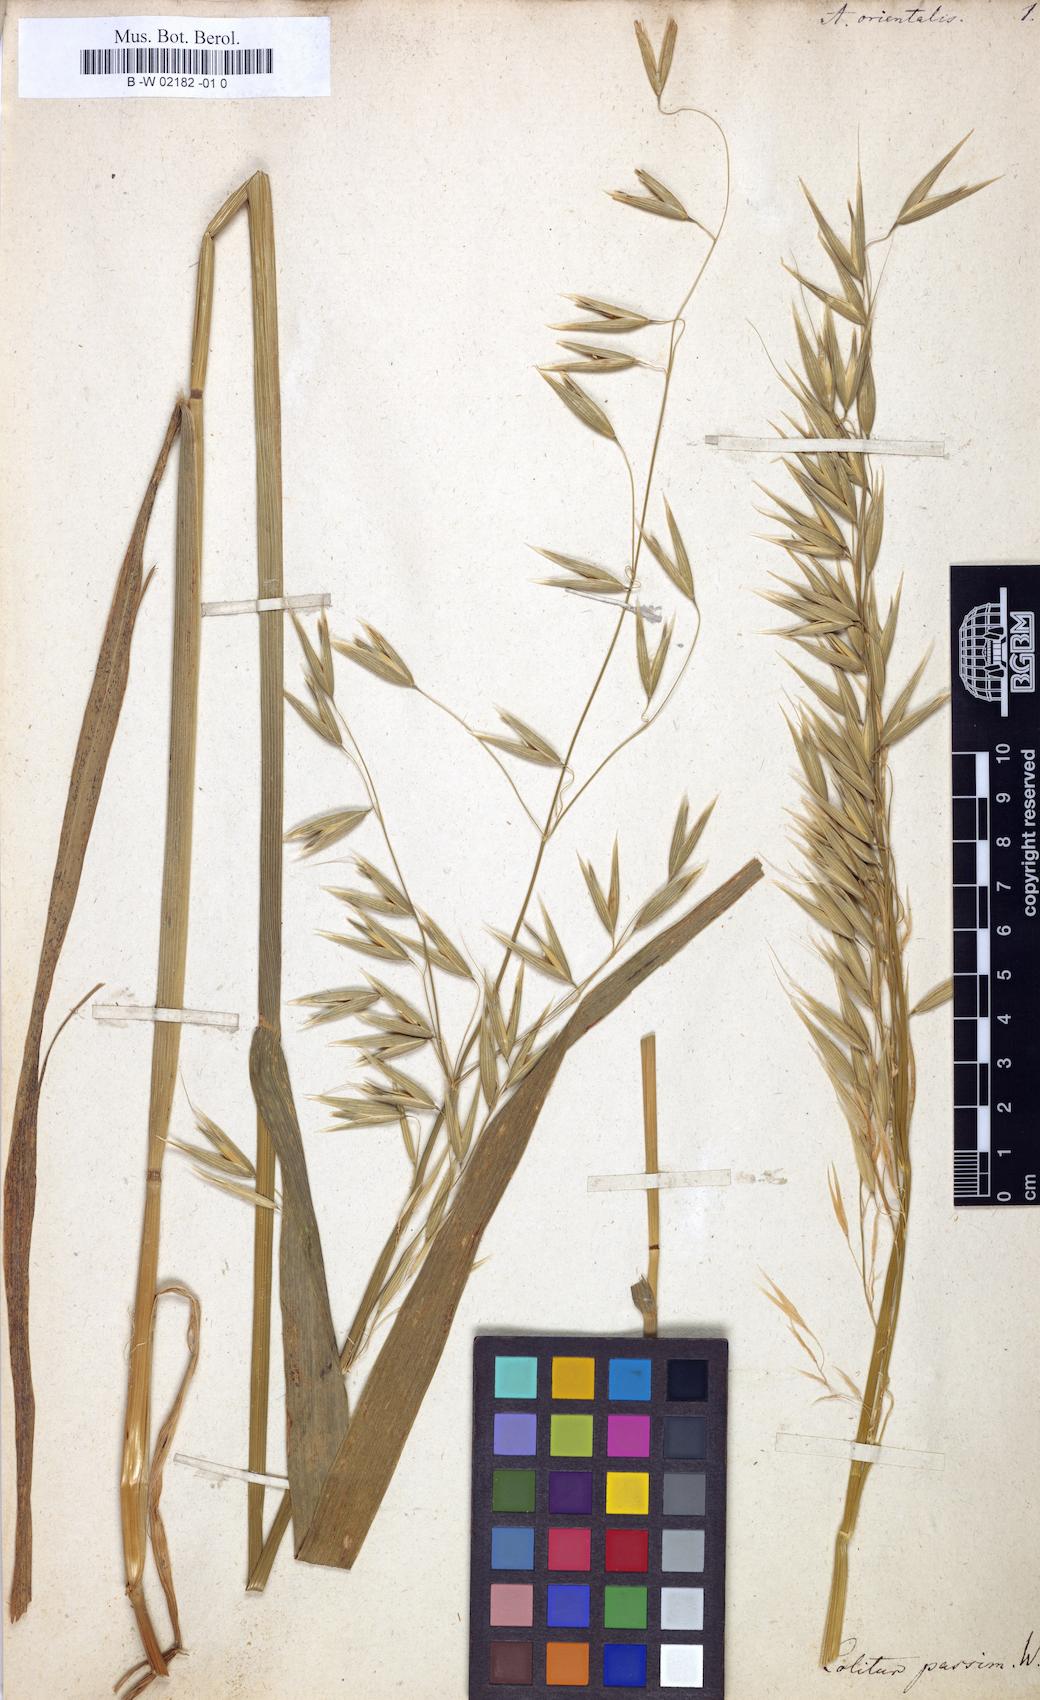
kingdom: Plantae
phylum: Tracheophyta
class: Liliopsida
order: Poales
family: Poaceae
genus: Avena
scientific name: Avena sativa
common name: Oat
